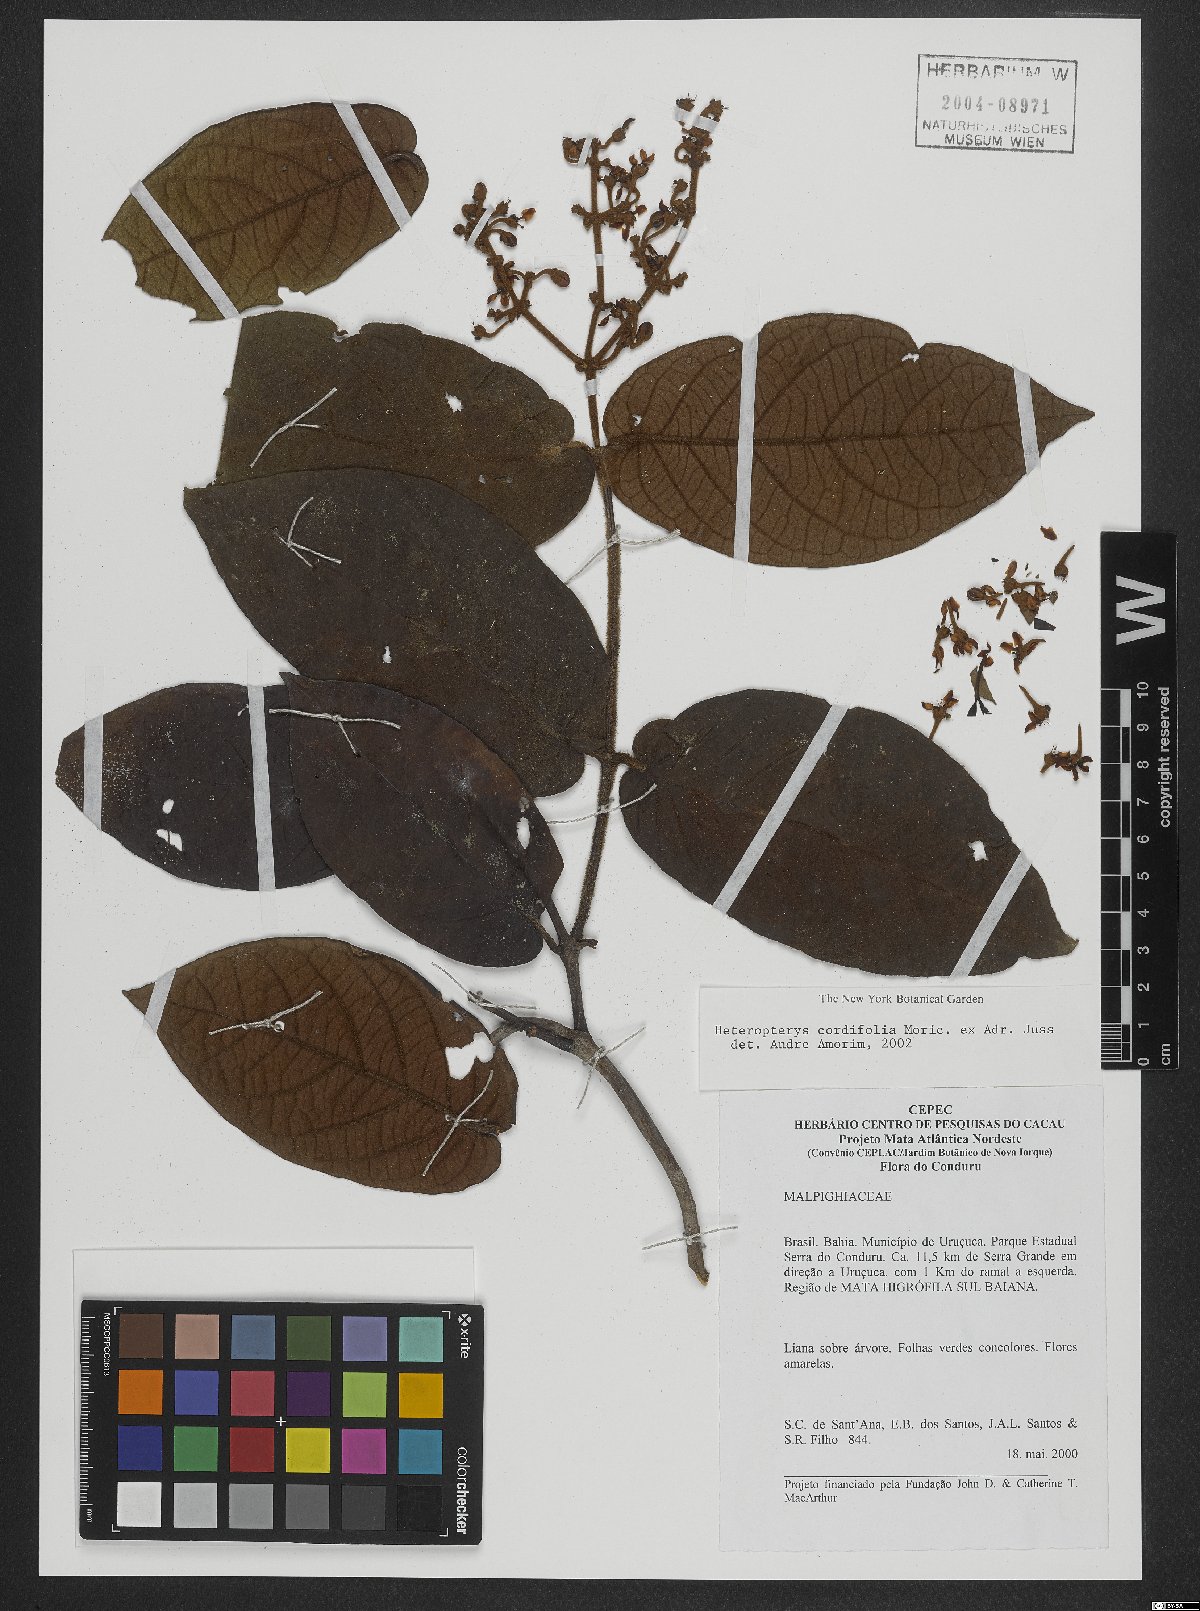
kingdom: Plantae
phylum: Tracheophyta
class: Magnoliopsida
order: Malpighiales
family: Malpighiaceae
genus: Heteropterys
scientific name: Heteropterys cordifolia
